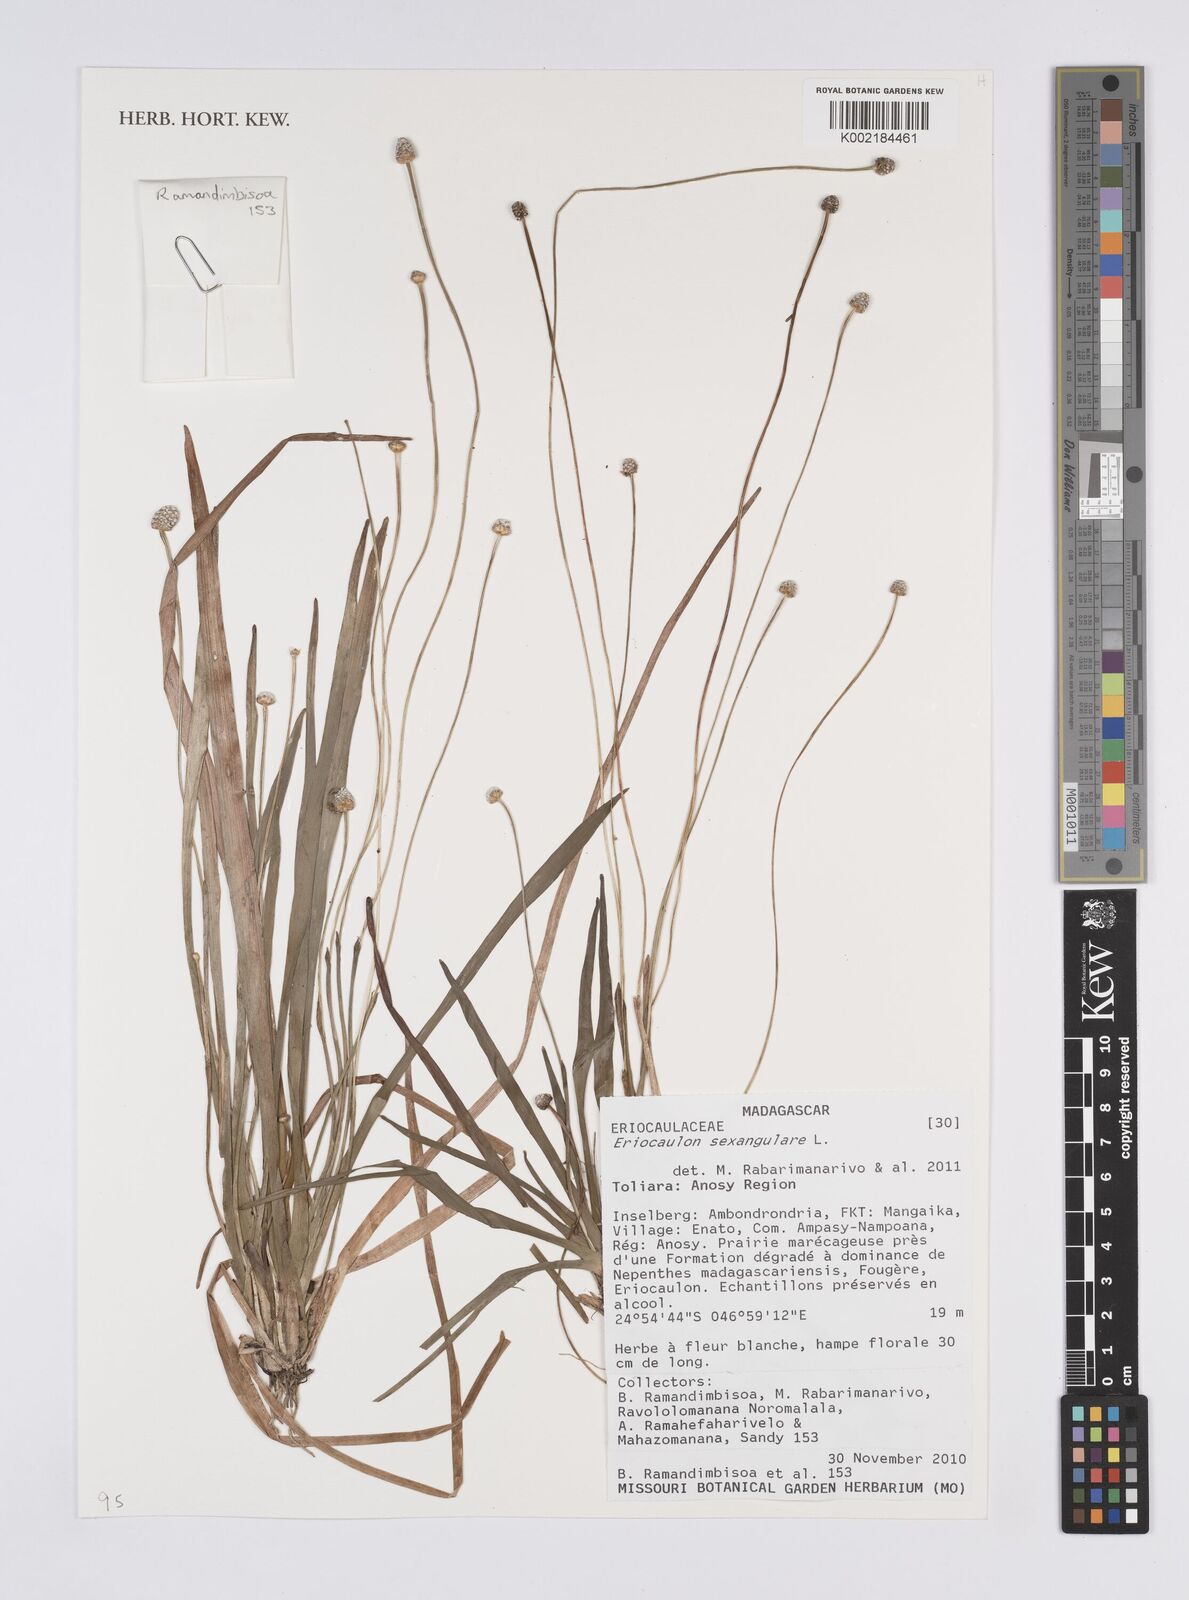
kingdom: Plantae
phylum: Tracheophyta
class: Liliopsida
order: Poales
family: Eriocaulaceae
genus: Eriocaulon
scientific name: Eriocaulon sexangulare
